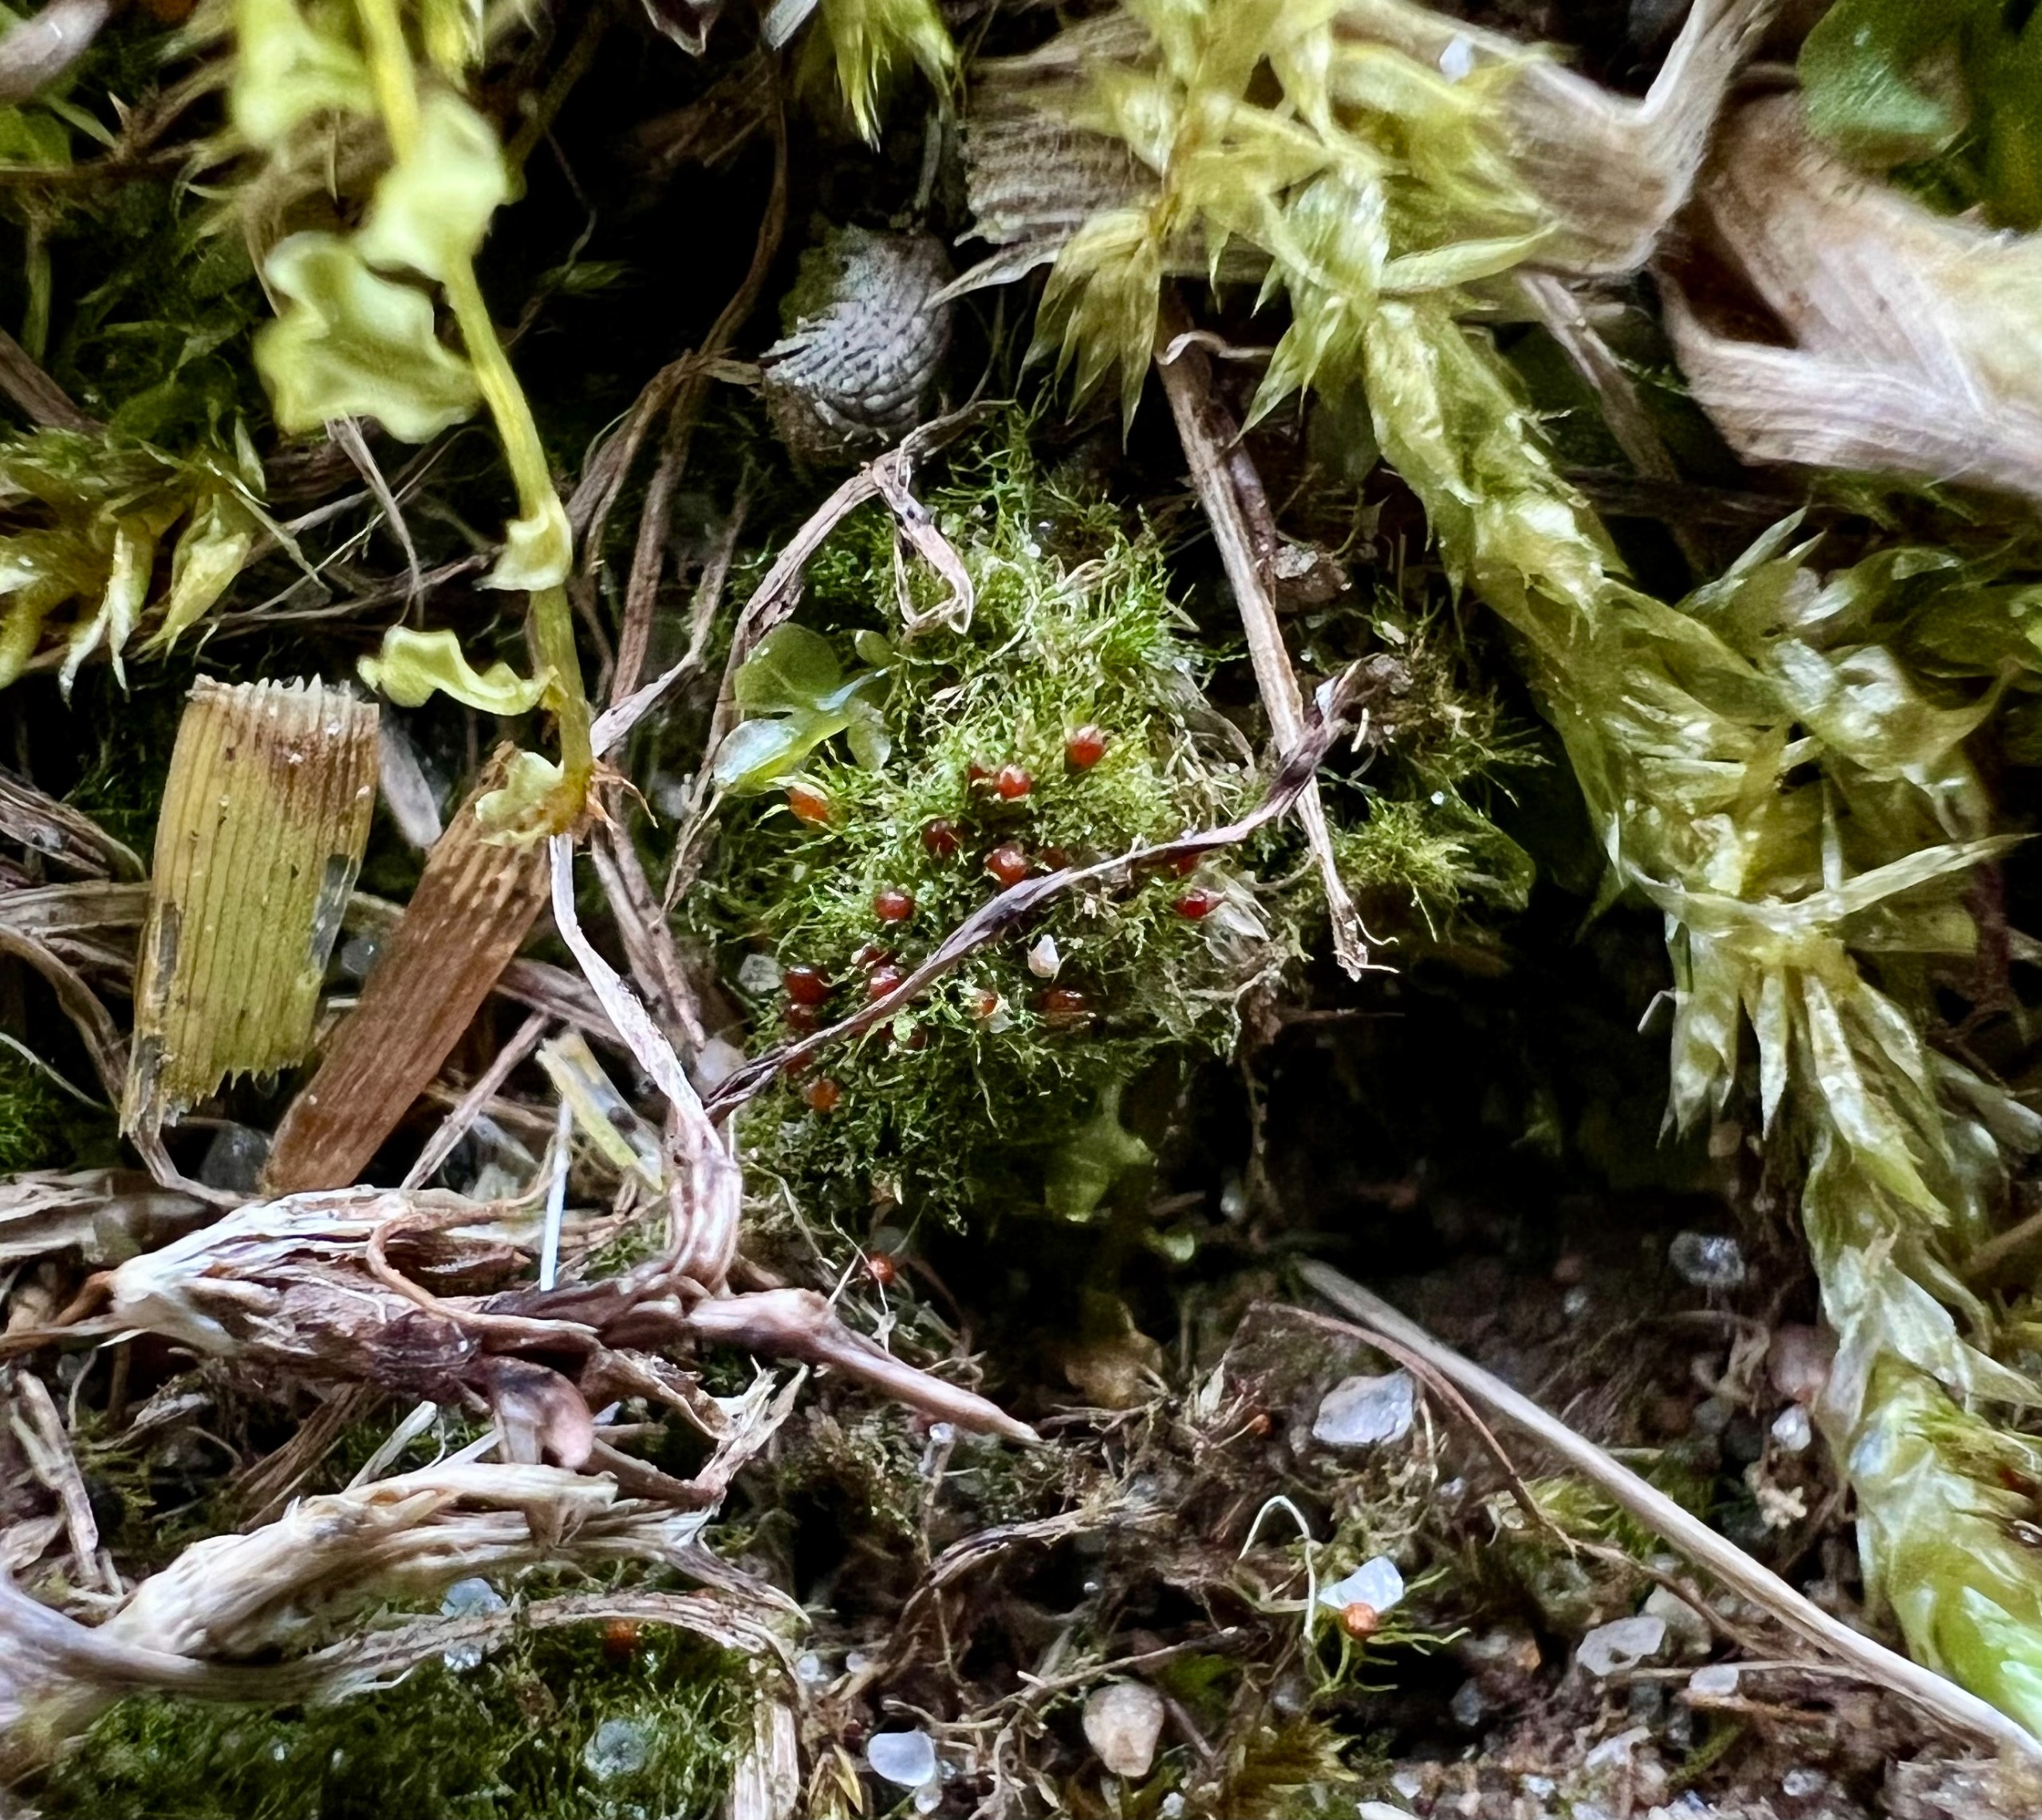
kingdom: Plantae
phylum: Bryophyta
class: Bryopsida
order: Pottiales
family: Ephemeraceae
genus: Ephemerum
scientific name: Ephemerum serratum
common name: Glat døgnmos
